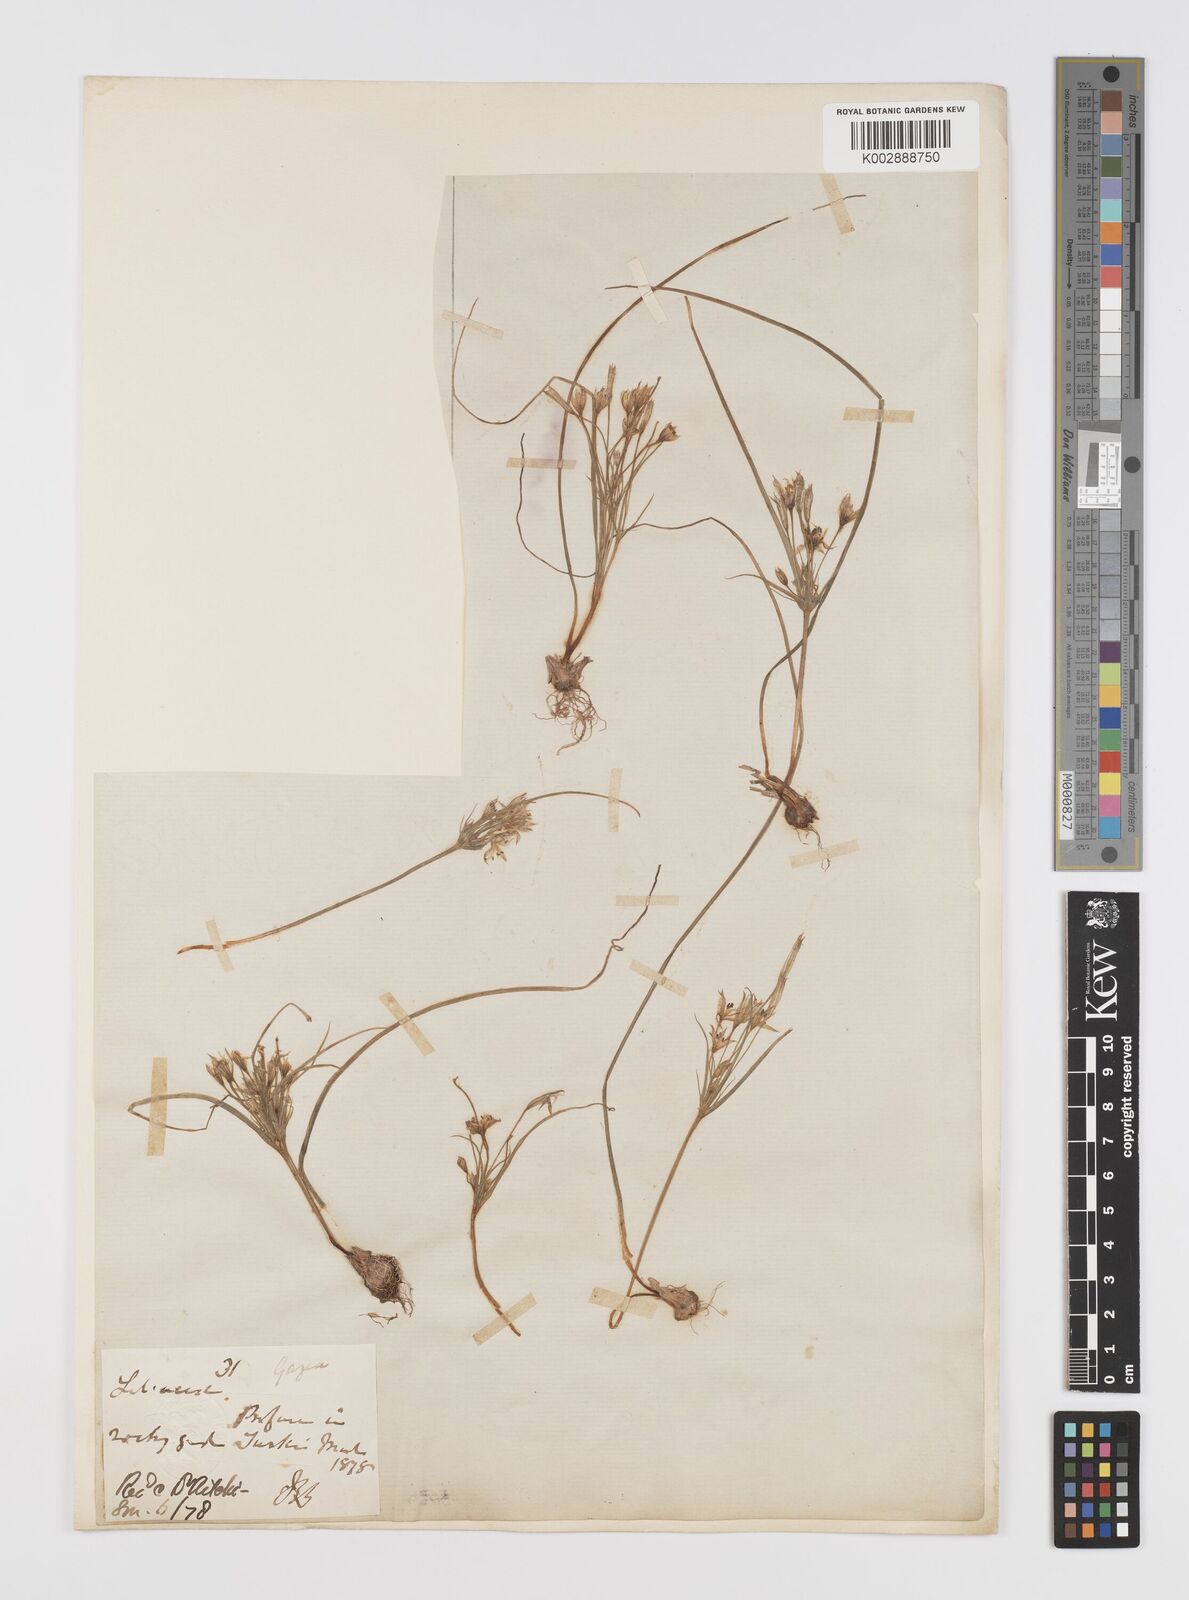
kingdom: Plantae
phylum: Tracheophyta
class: Liliopsida
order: Liliales
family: Liliaceae
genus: Gagea
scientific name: Gagea
